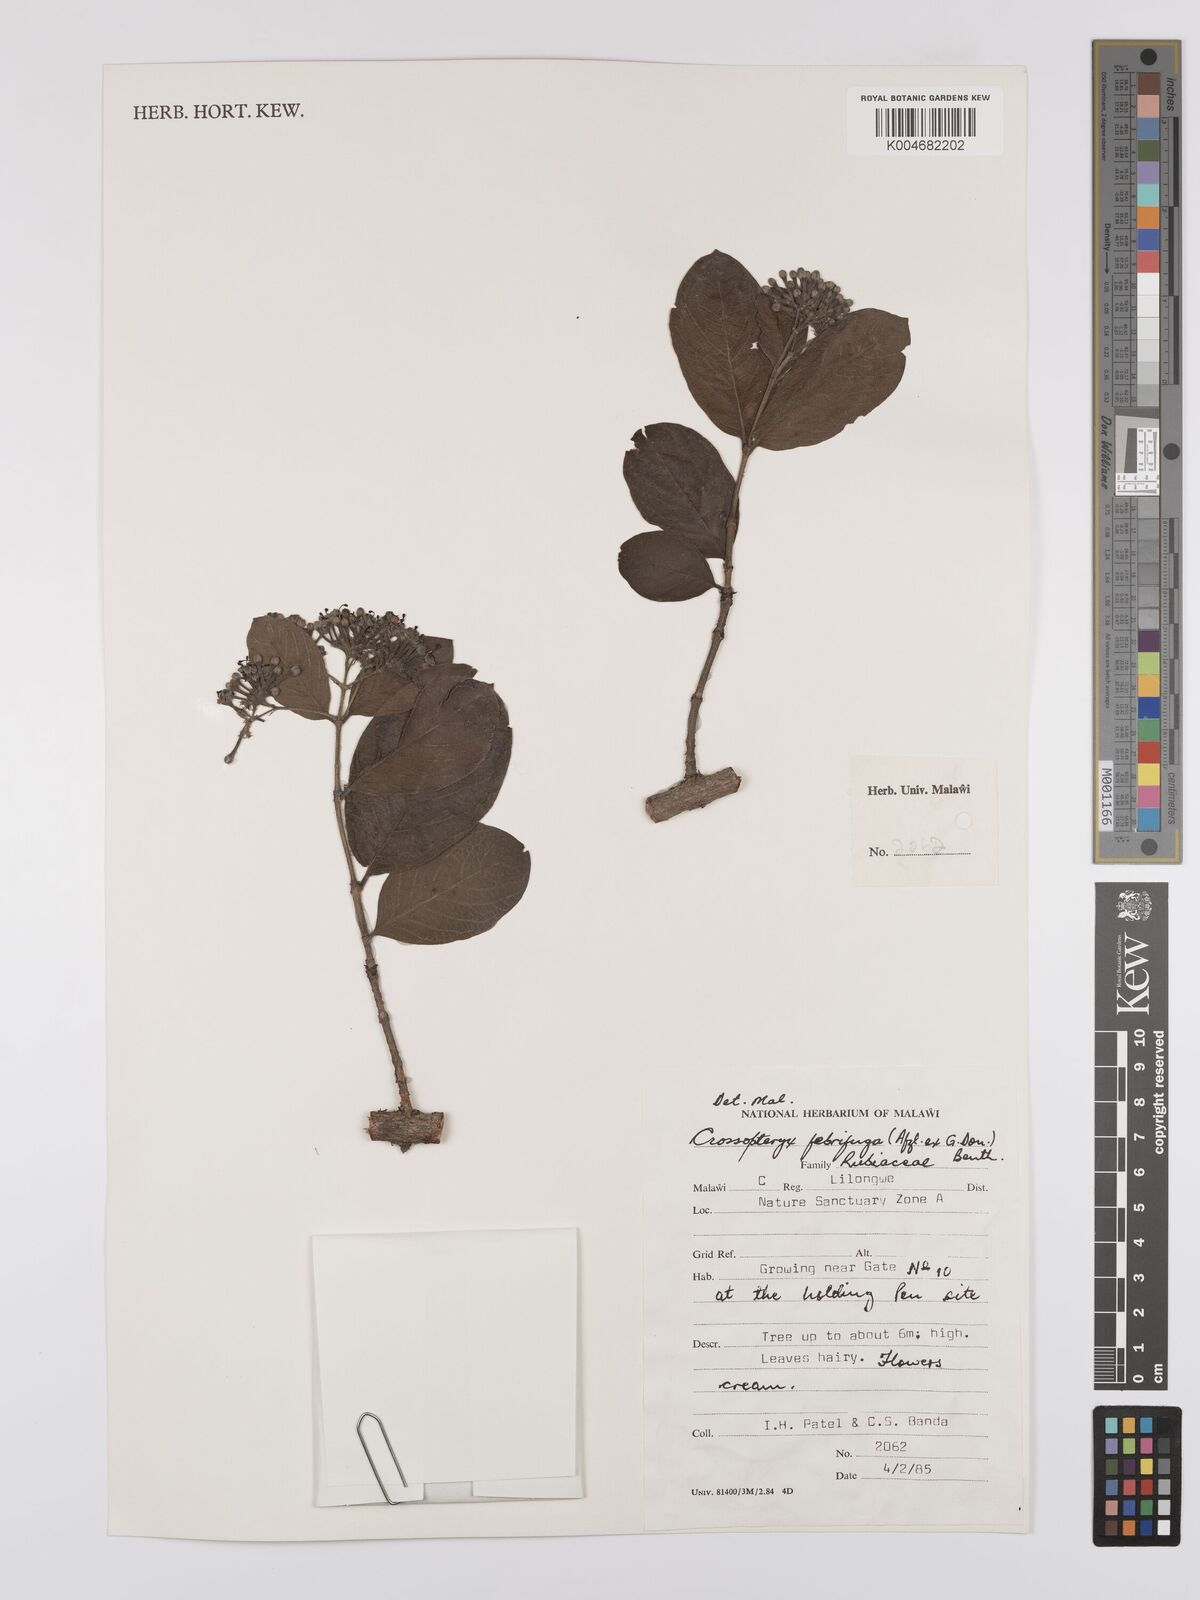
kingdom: Plantae
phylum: Tracheophyta
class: Magnoliopsida
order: Gentianales
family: Rubiaceae
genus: Crossopteryx
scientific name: Crossopteryx febrifuga
